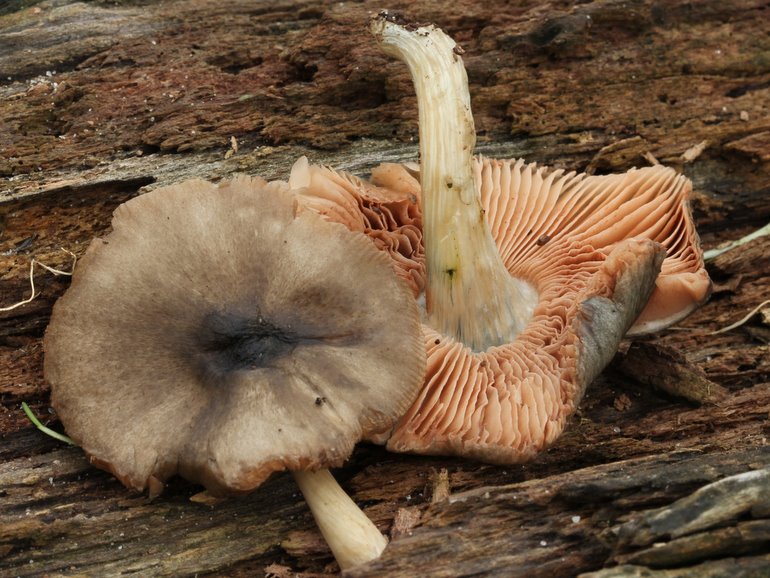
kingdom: Fungi
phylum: Basidiomycota
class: Agaricomycetes
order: Agaricales
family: Pluteaceae
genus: Pluteus
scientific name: Pluteus salicinus
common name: stiv skærmhat
